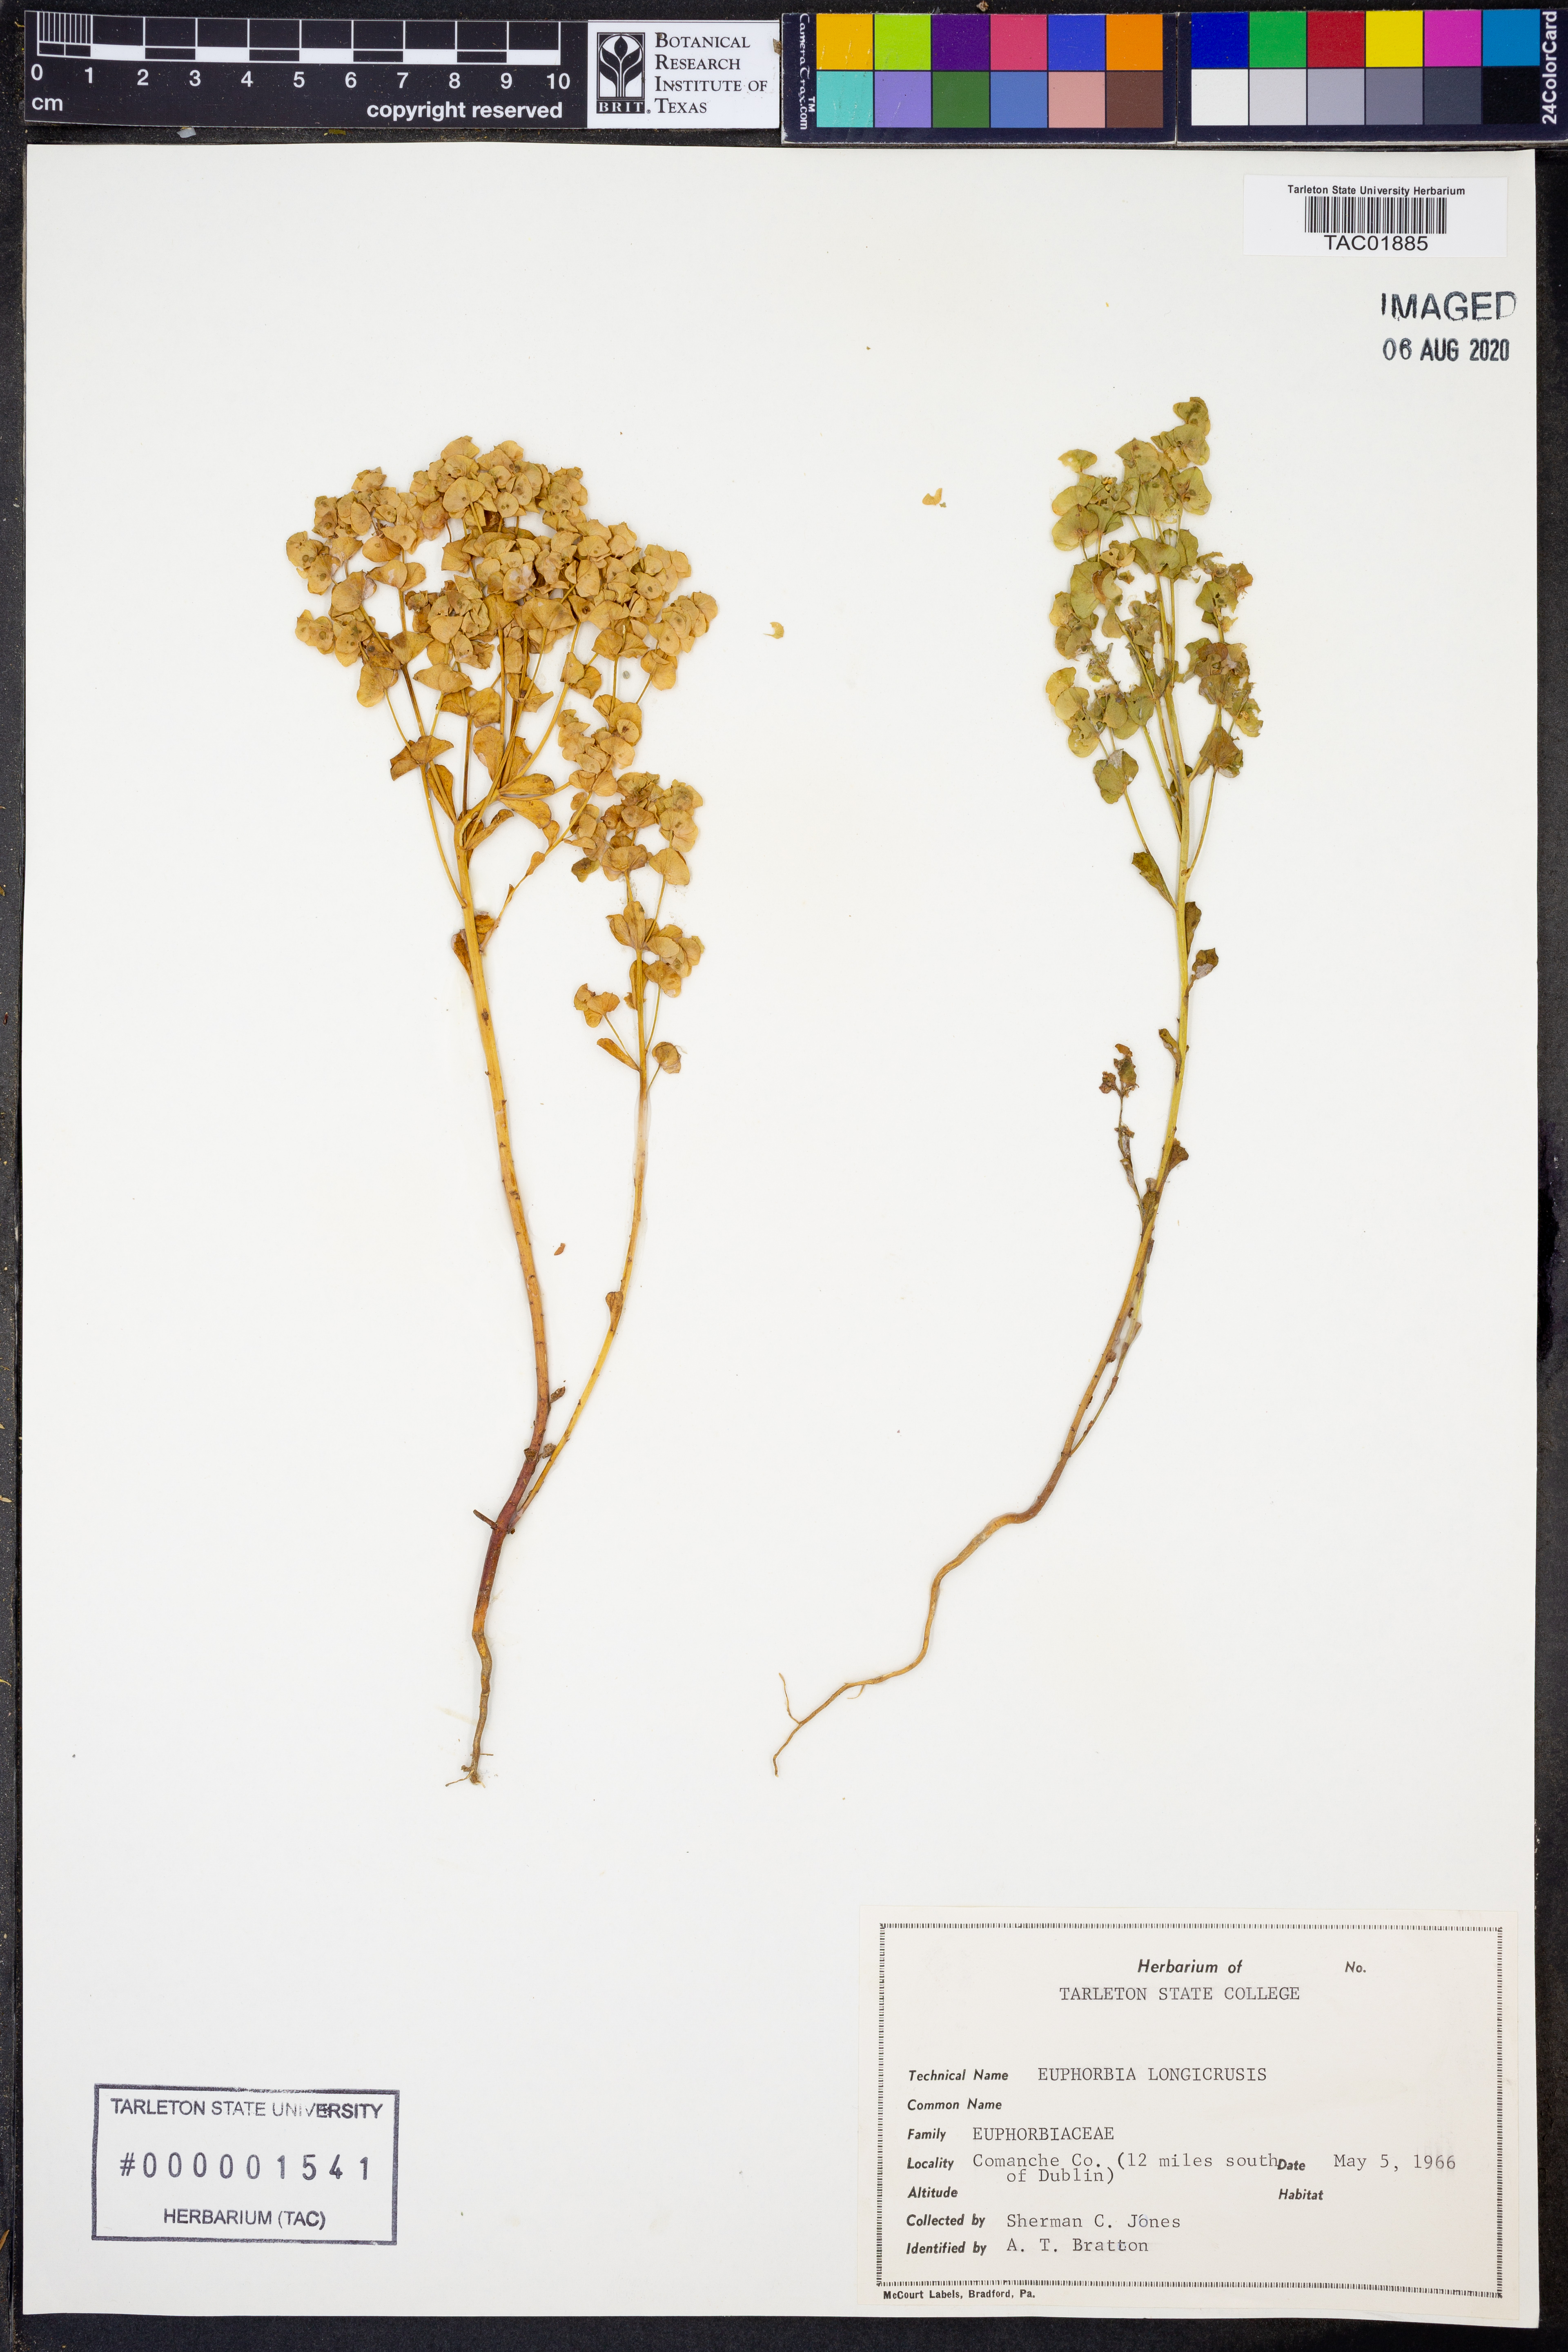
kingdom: Plantae
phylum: Tracheophyta
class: Magnoliopsida
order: Malpighiales
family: Euphorbiaceae
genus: Euphorbia
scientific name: Euphorbia longicruris
